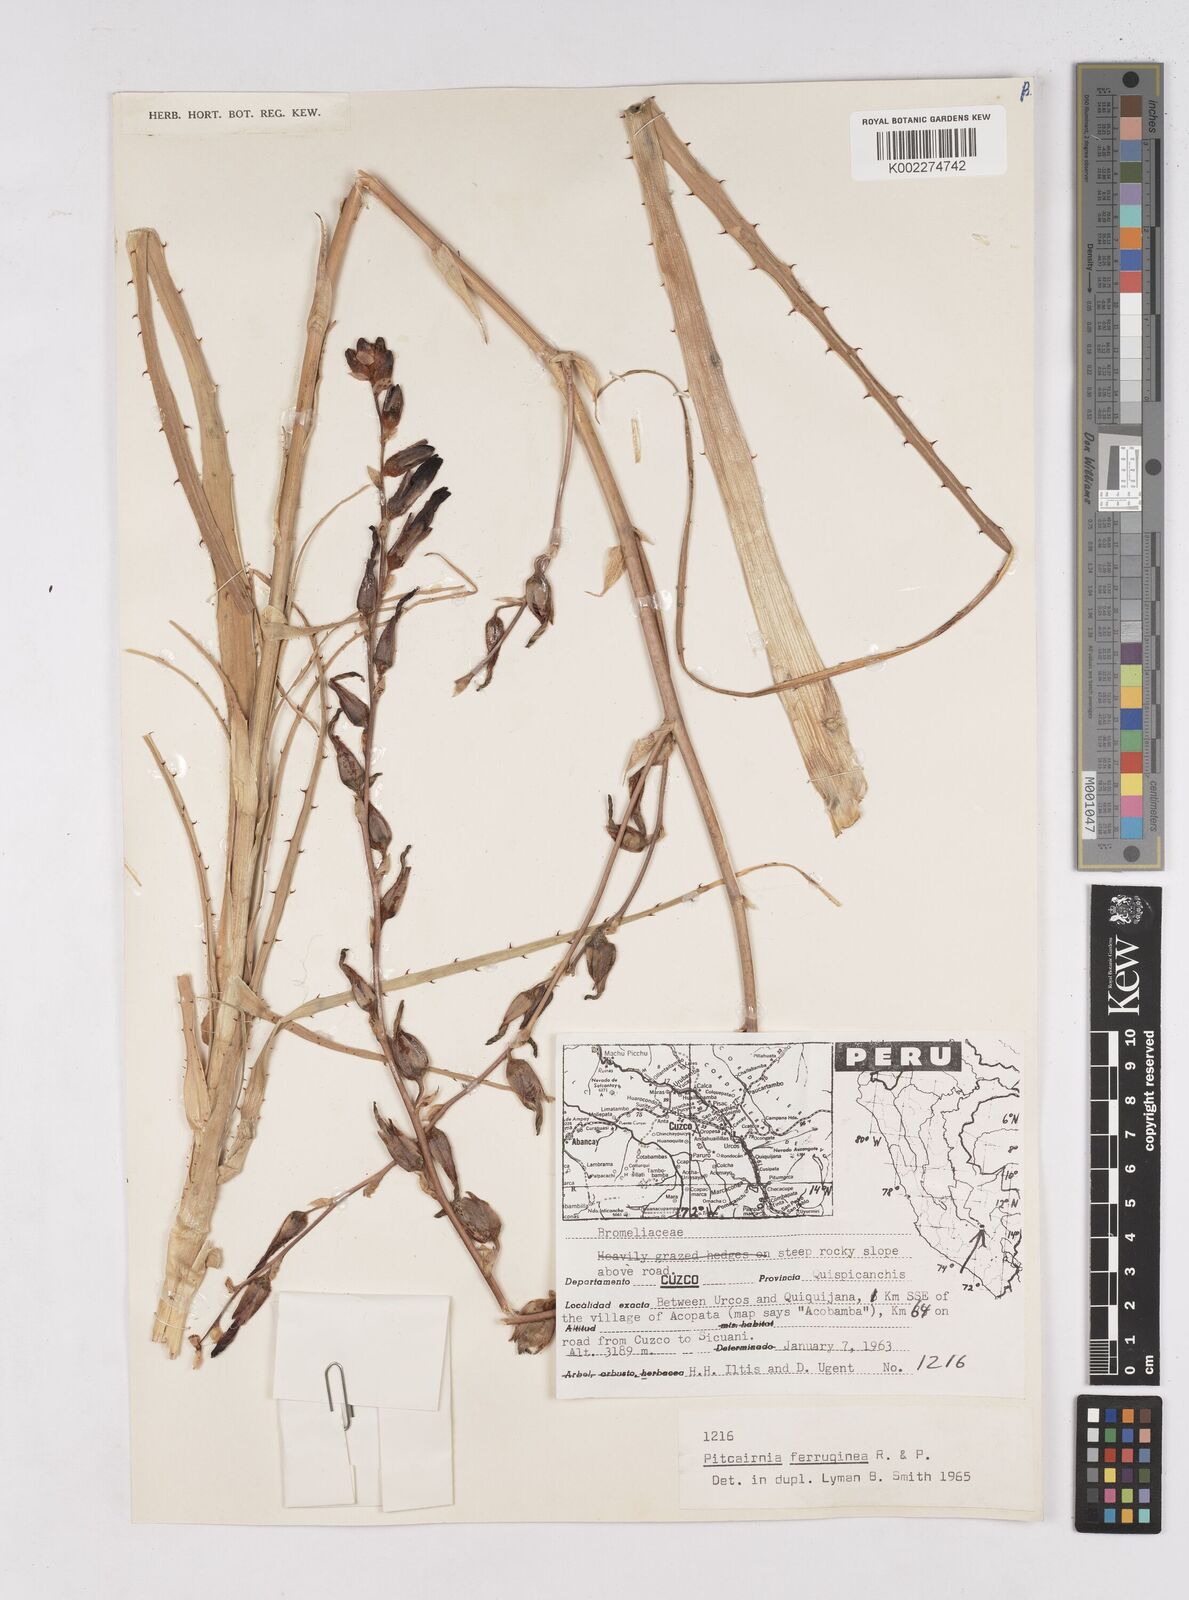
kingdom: Plantae
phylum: Tracheophyta
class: Liliopsida
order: Poales
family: Bromeliaceae
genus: Puya
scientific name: Puya ferruginea
